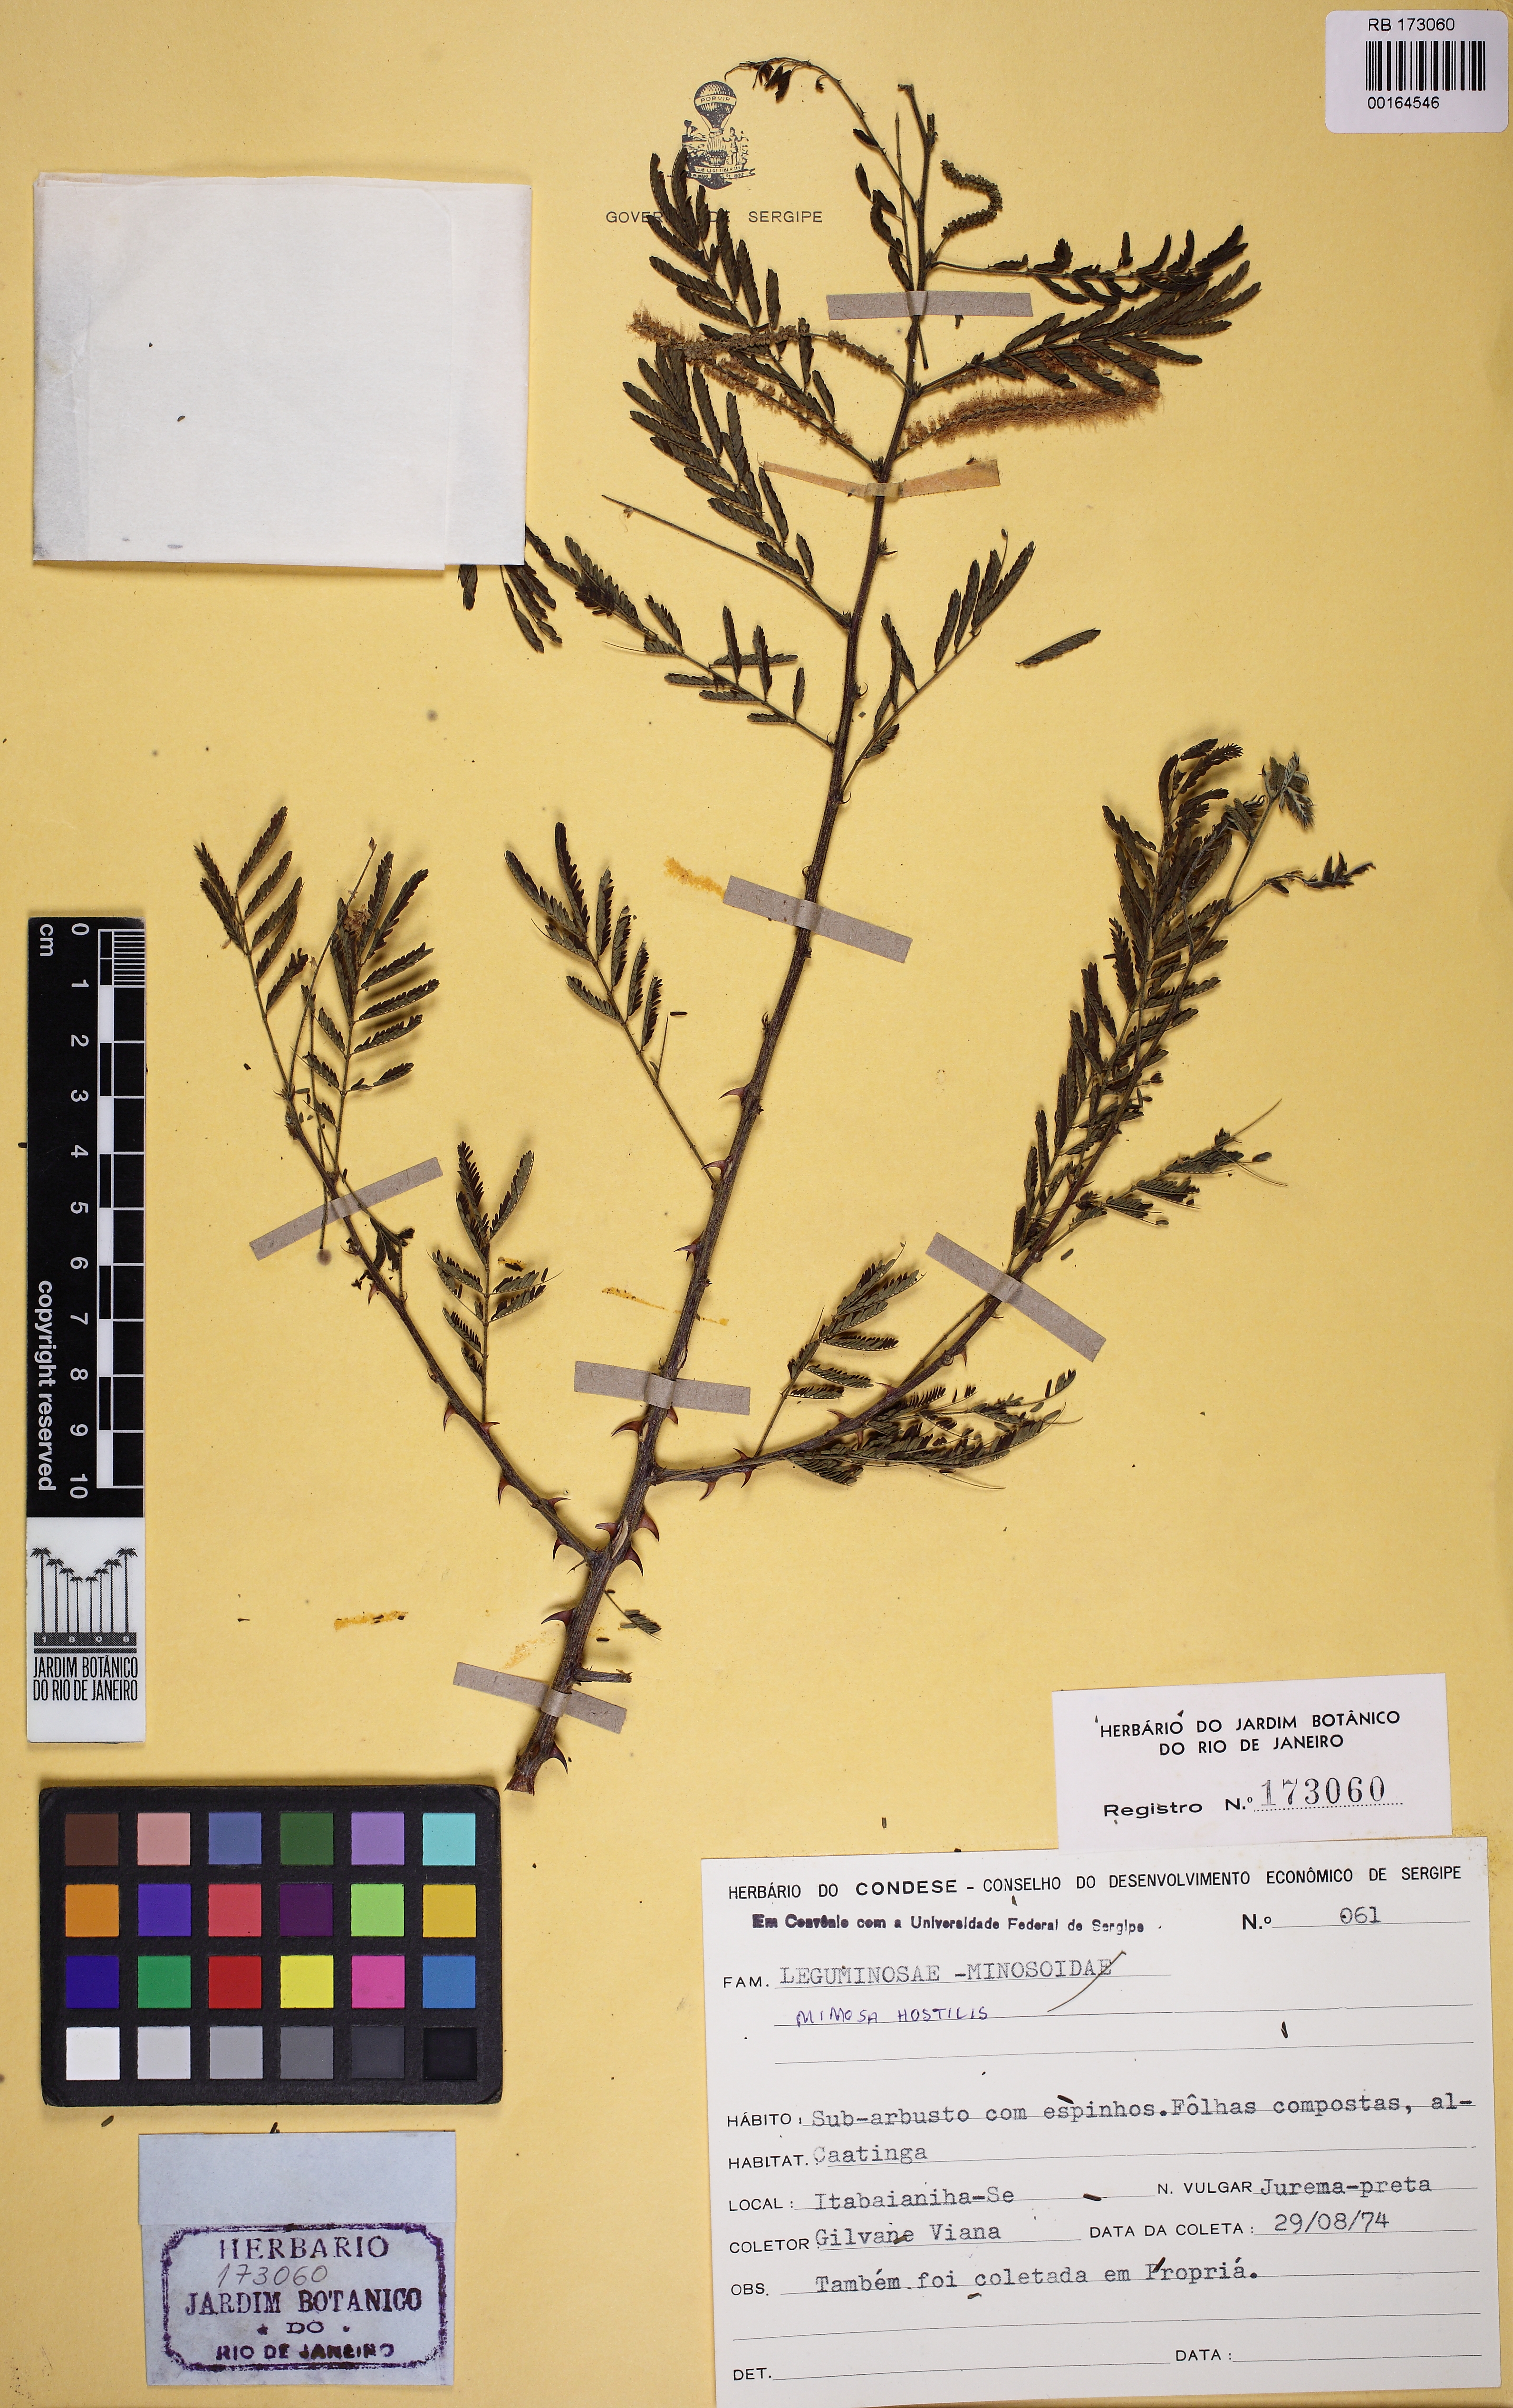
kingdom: Plantae
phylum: Tracheophyta
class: Magnoliopsida
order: Fabales
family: Fabaceae
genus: Mimosa
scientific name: Mimosa tenuiflora
